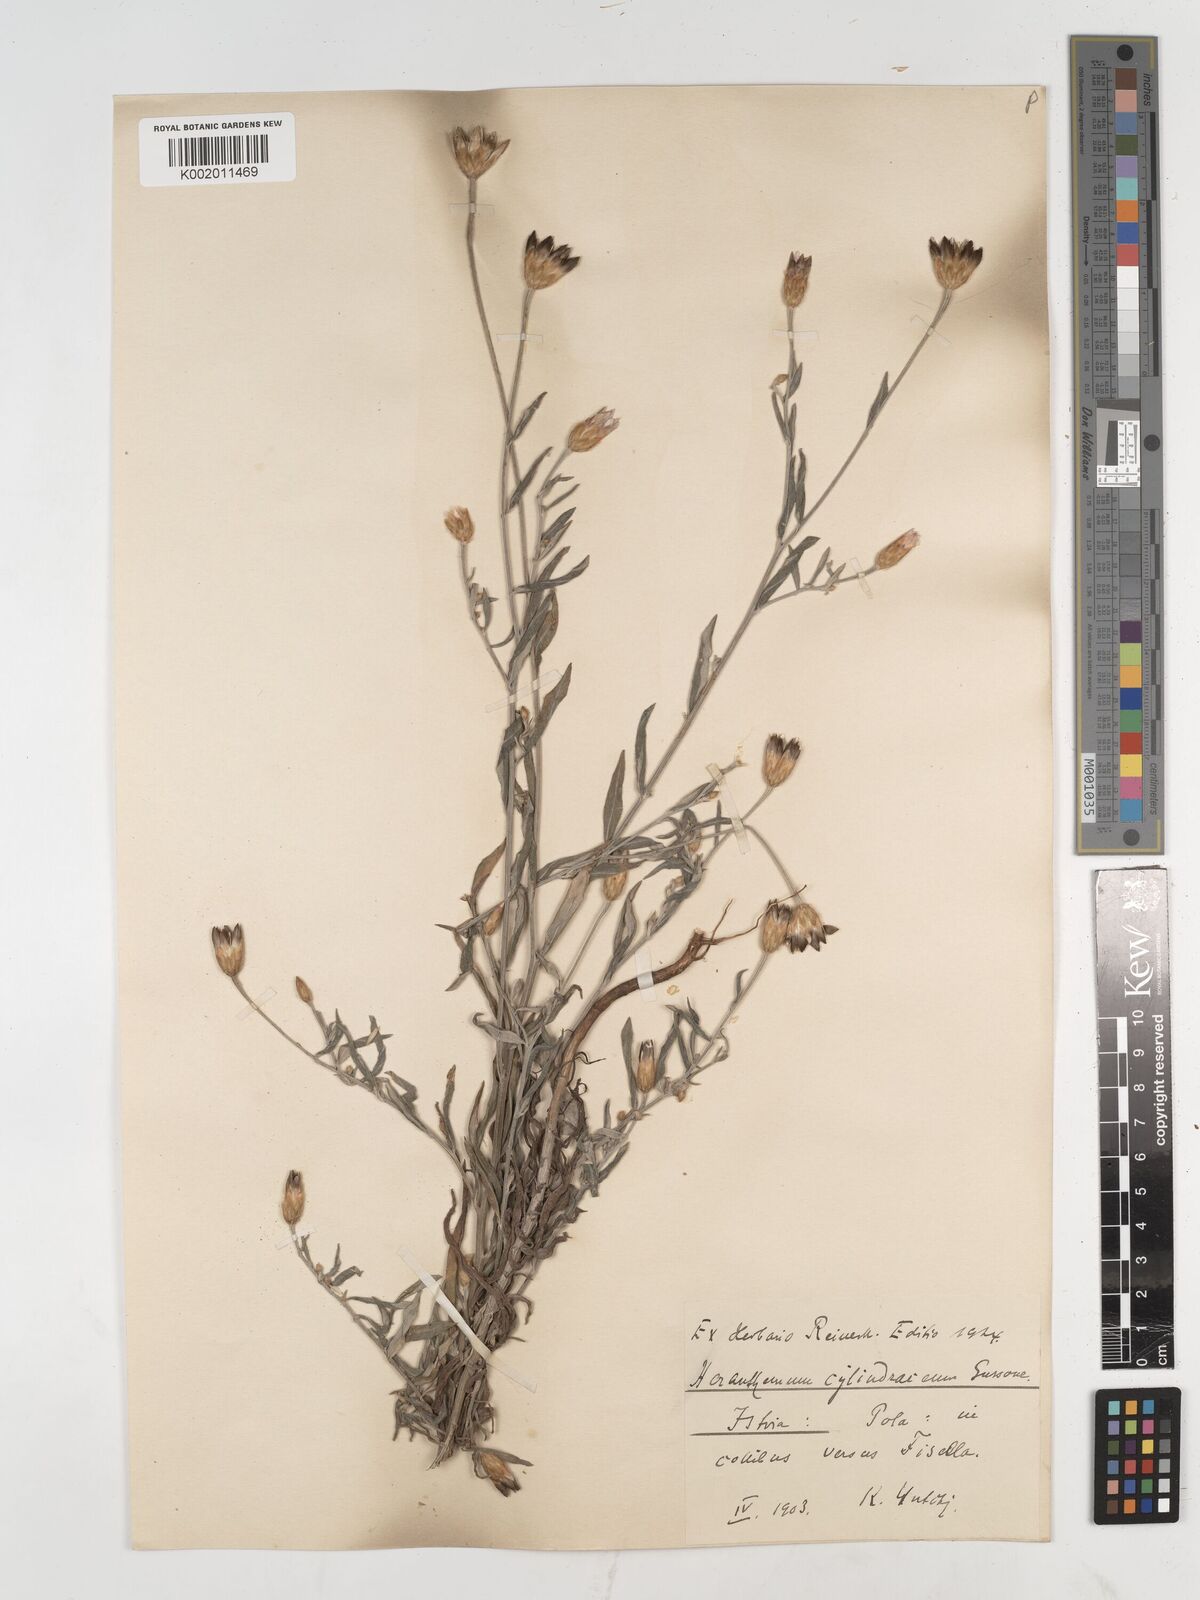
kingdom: Plantae
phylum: Tracheophyta
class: Magnoliopsida
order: Asterales
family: Asteraceae
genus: Xeranthemum
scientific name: Xeranthemum
